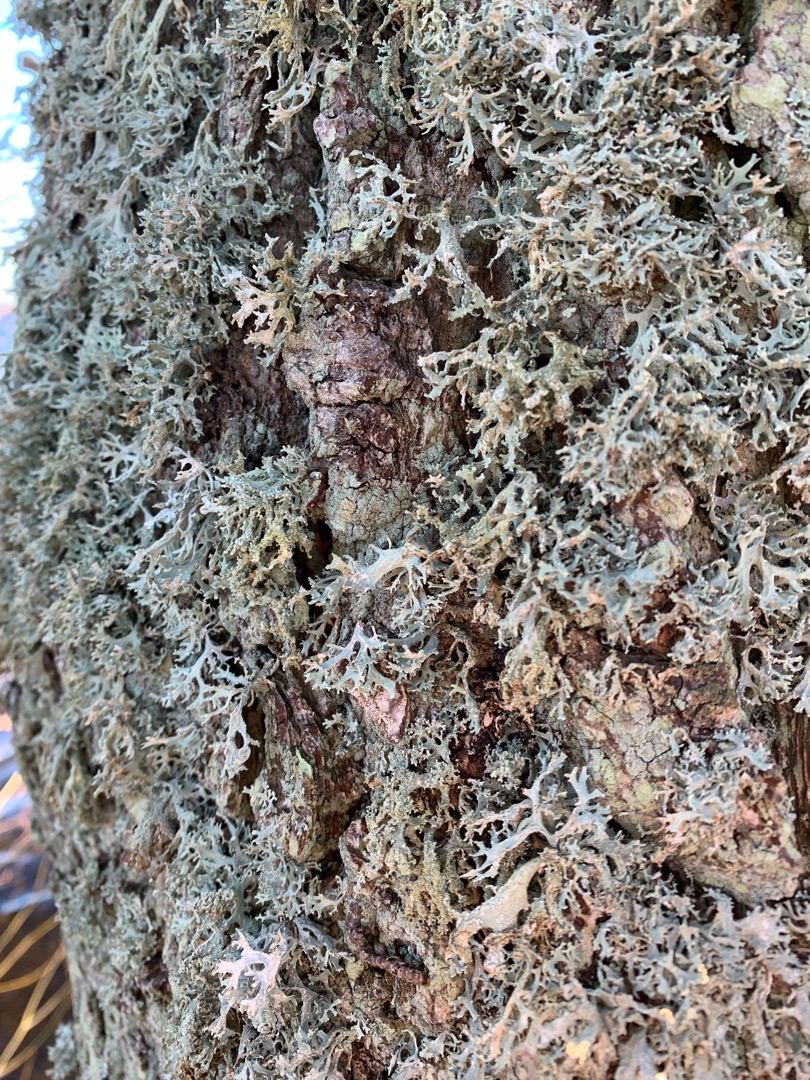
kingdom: Fungi
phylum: Ascomycota
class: Lecanoromycetes
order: Lecanorales
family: Parmeliaceae
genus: Evernia
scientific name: Evernia prunastri
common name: Almindelig slåenlav
